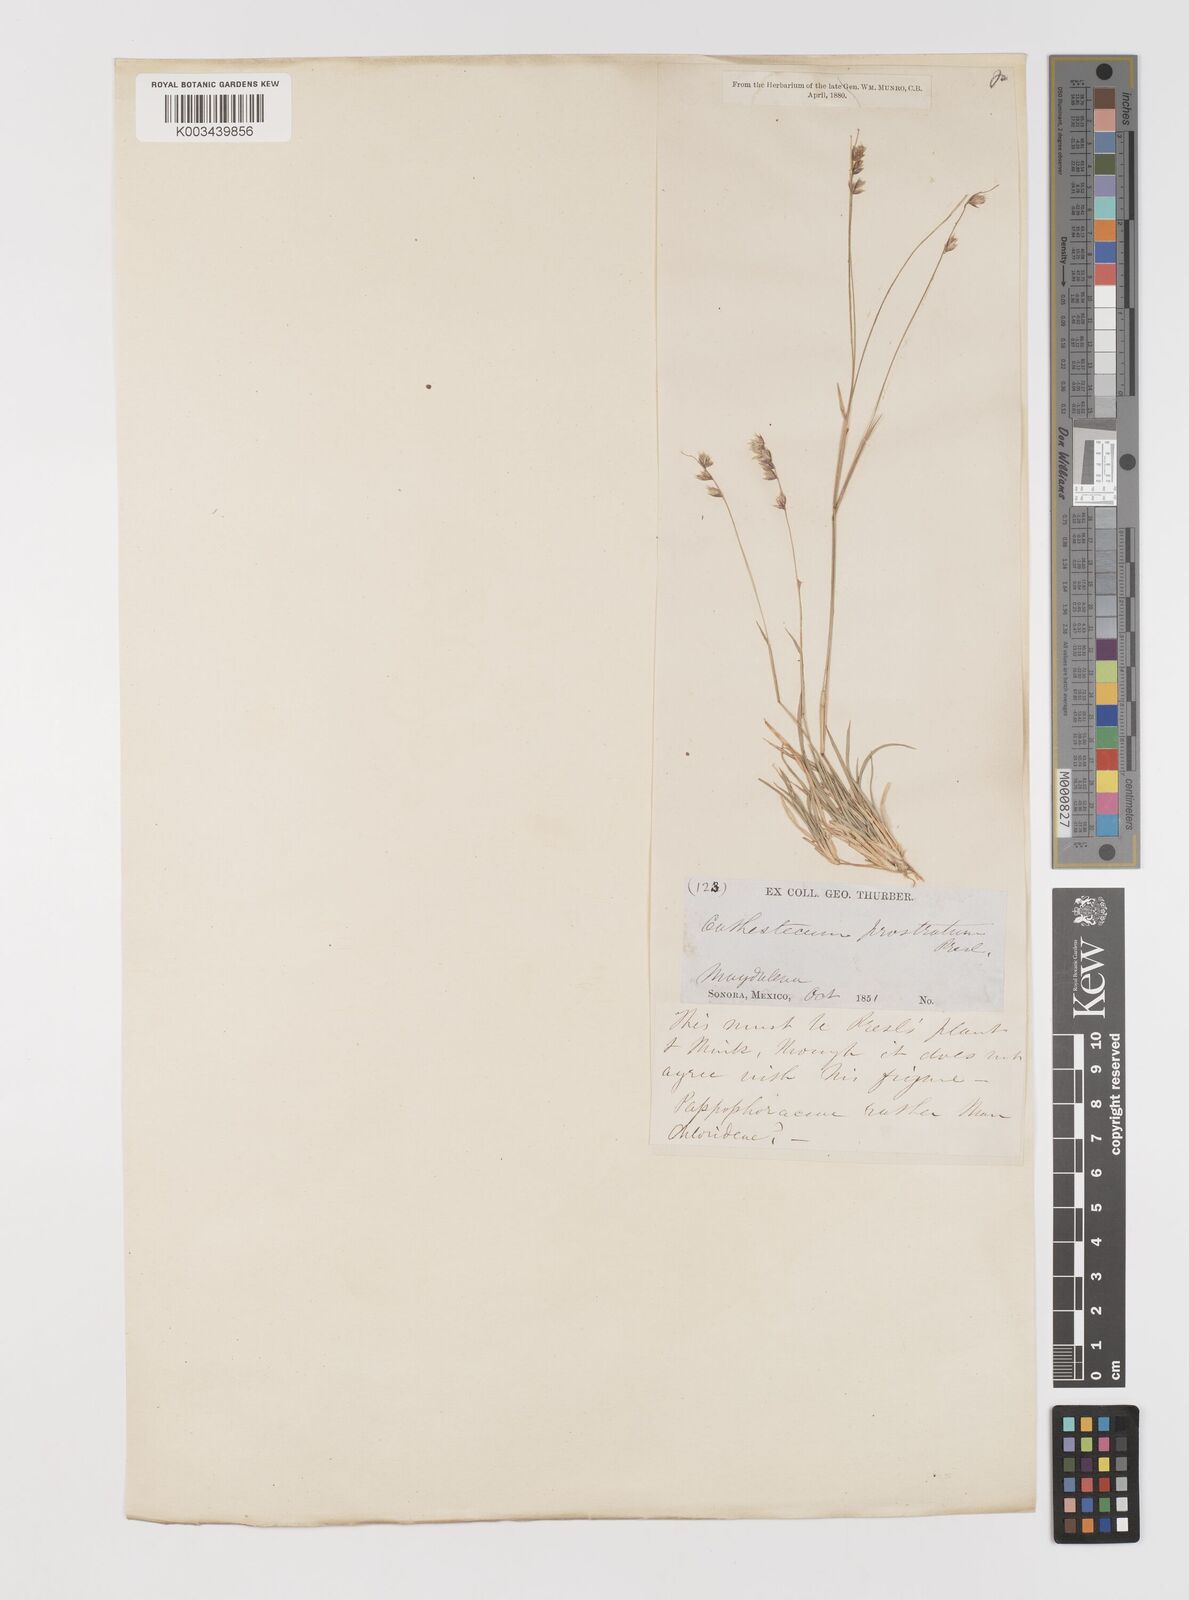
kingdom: Plantae
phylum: Tracheophyta
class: Liliopsida
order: Poales
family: Poaceae
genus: Bouteloua
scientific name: Bouteloua erecta
